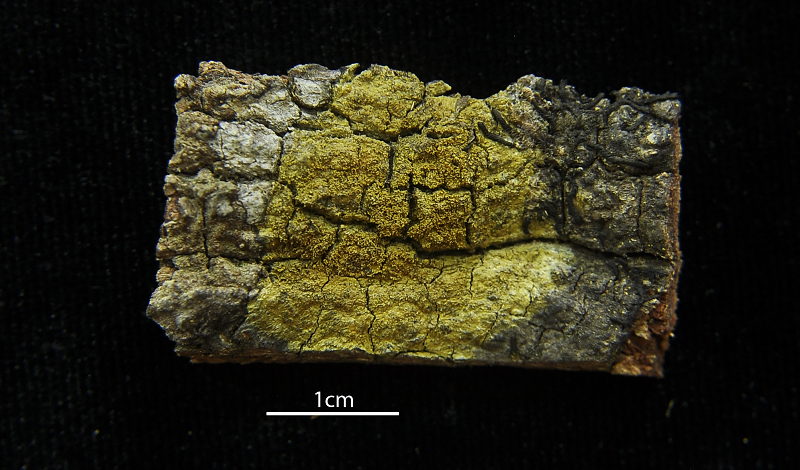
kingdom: Fungi
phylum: Ascomycota
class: Lecanoromycetes
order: Teloschistales
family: Letrouitiaceae
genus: Letrouitia
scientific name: Letrouitia leprolyta
